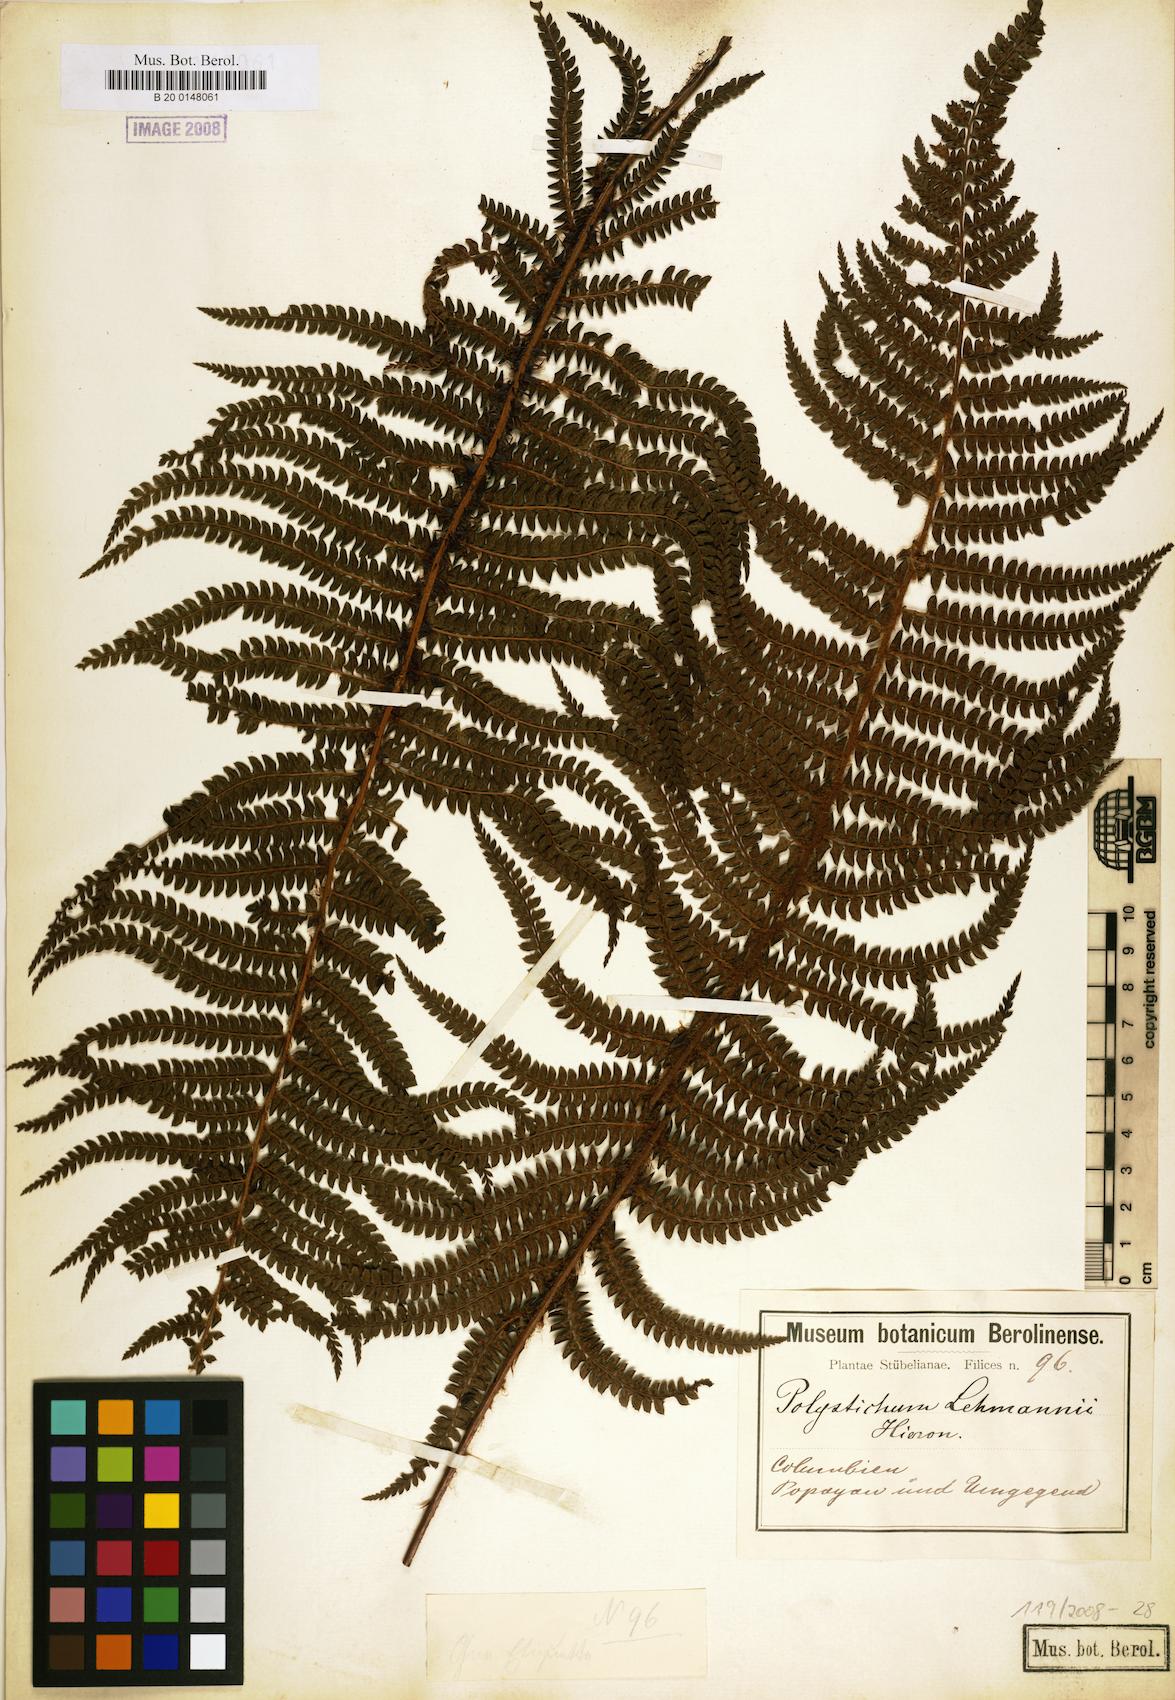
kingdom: Plantae
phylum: Tracheophyta
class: Polypodiopsida
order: Polypodiales
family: Dryopteridaceae
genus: Polystichum
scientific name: Polystichum lehmannii
